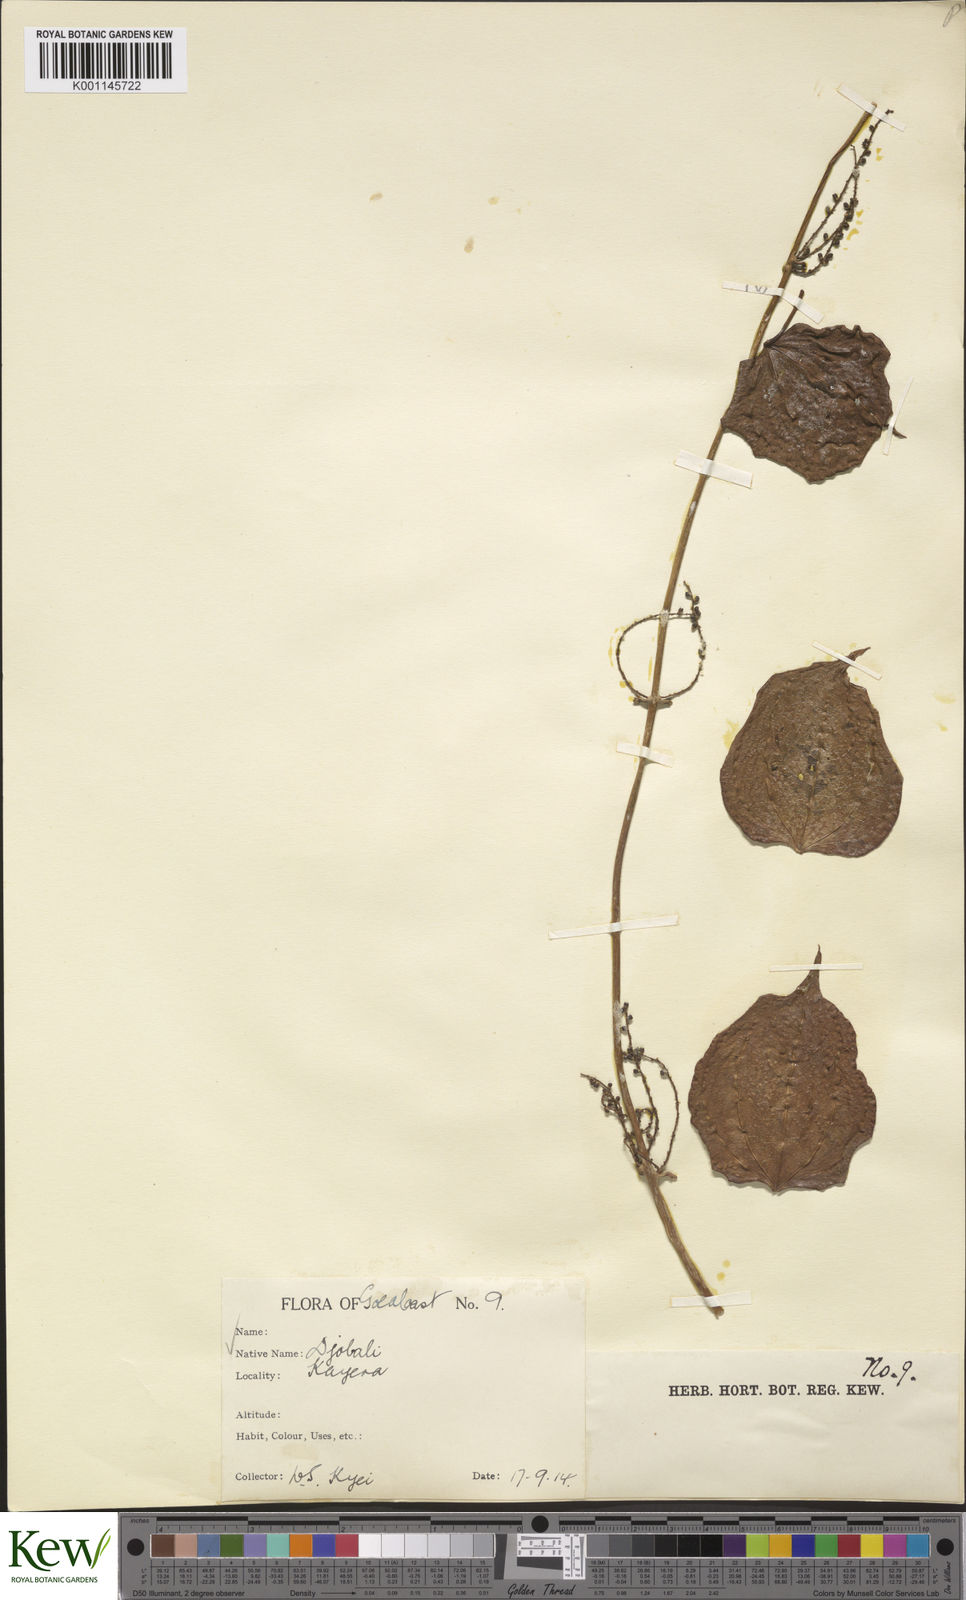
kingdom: Plantae
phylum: Tracheophyta
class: Liliopsida
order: Dioscoreales
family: Dioscoreaceae
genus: Dioscorea
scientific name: Dioscorea cayenensis
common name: Attoto yam
